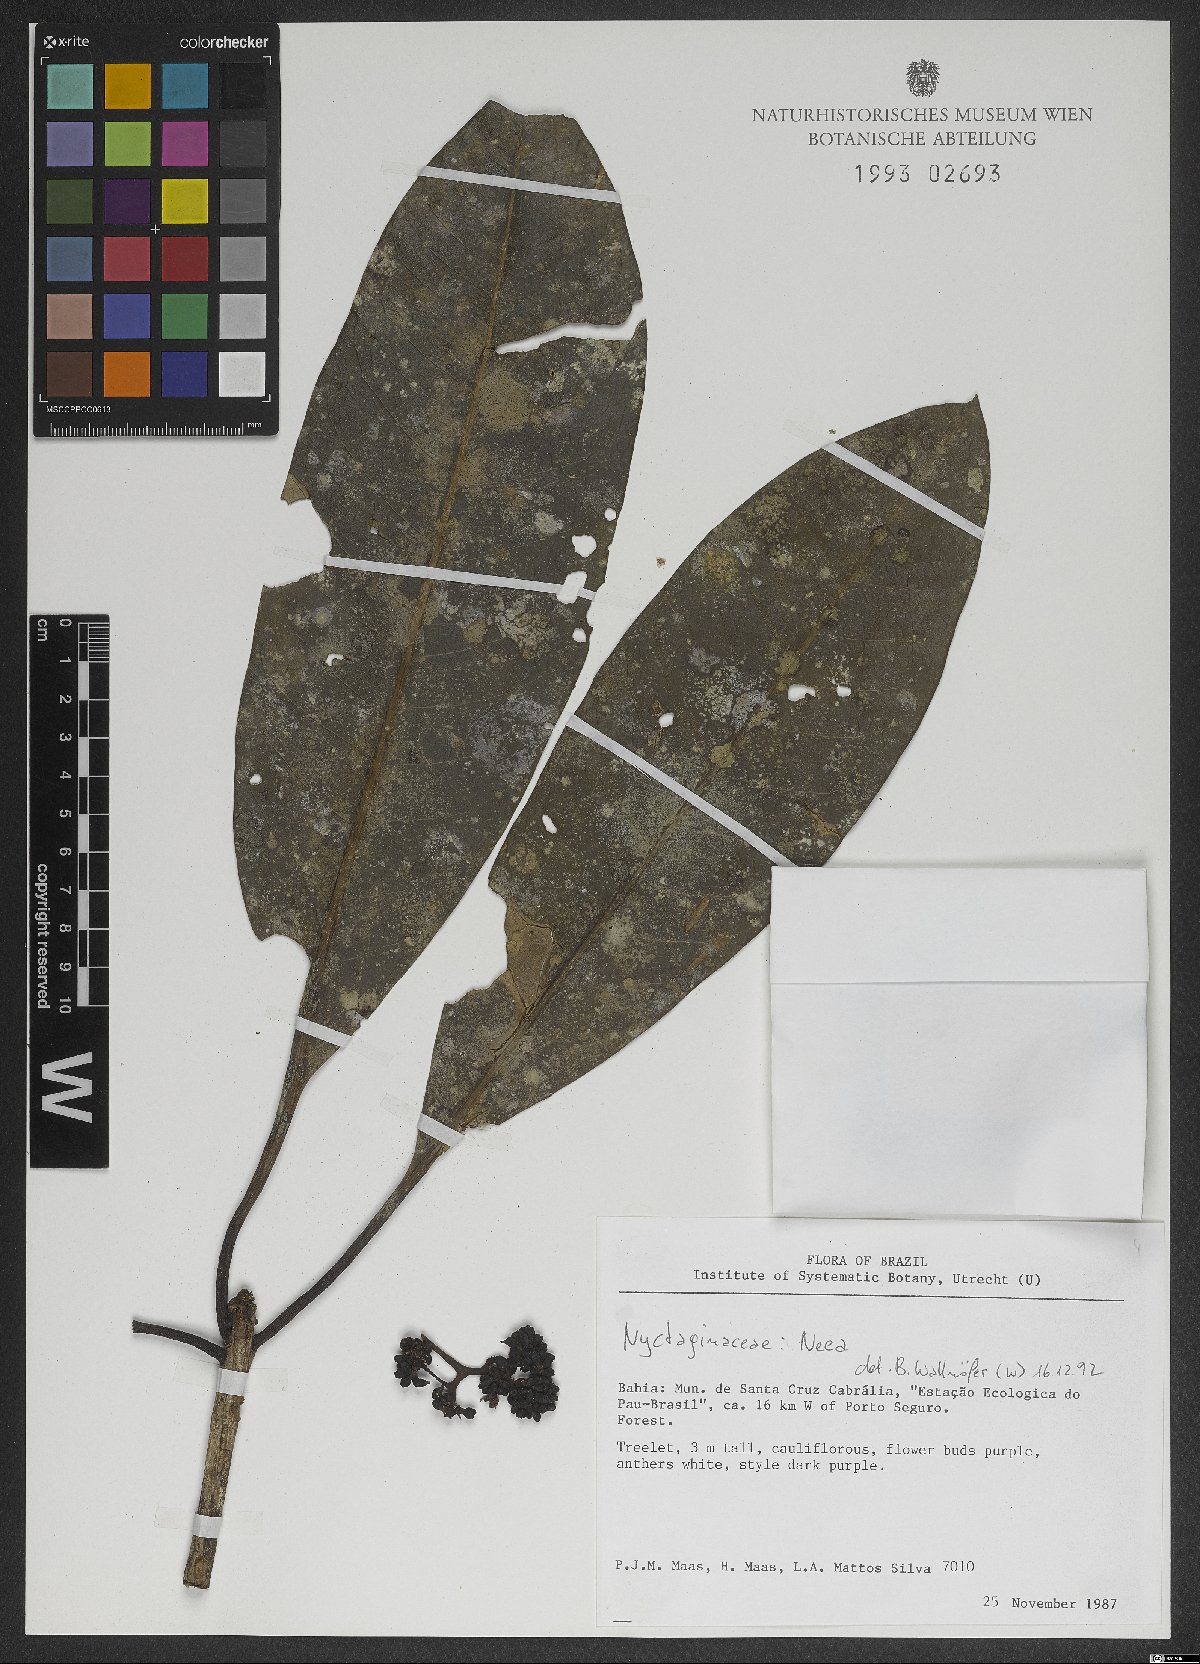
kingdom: Plantae
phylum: Tracheophyta
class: Magnoliopsida
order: Caryophyllales
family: Nyctaginaceae
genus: Neea
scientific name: Neea
